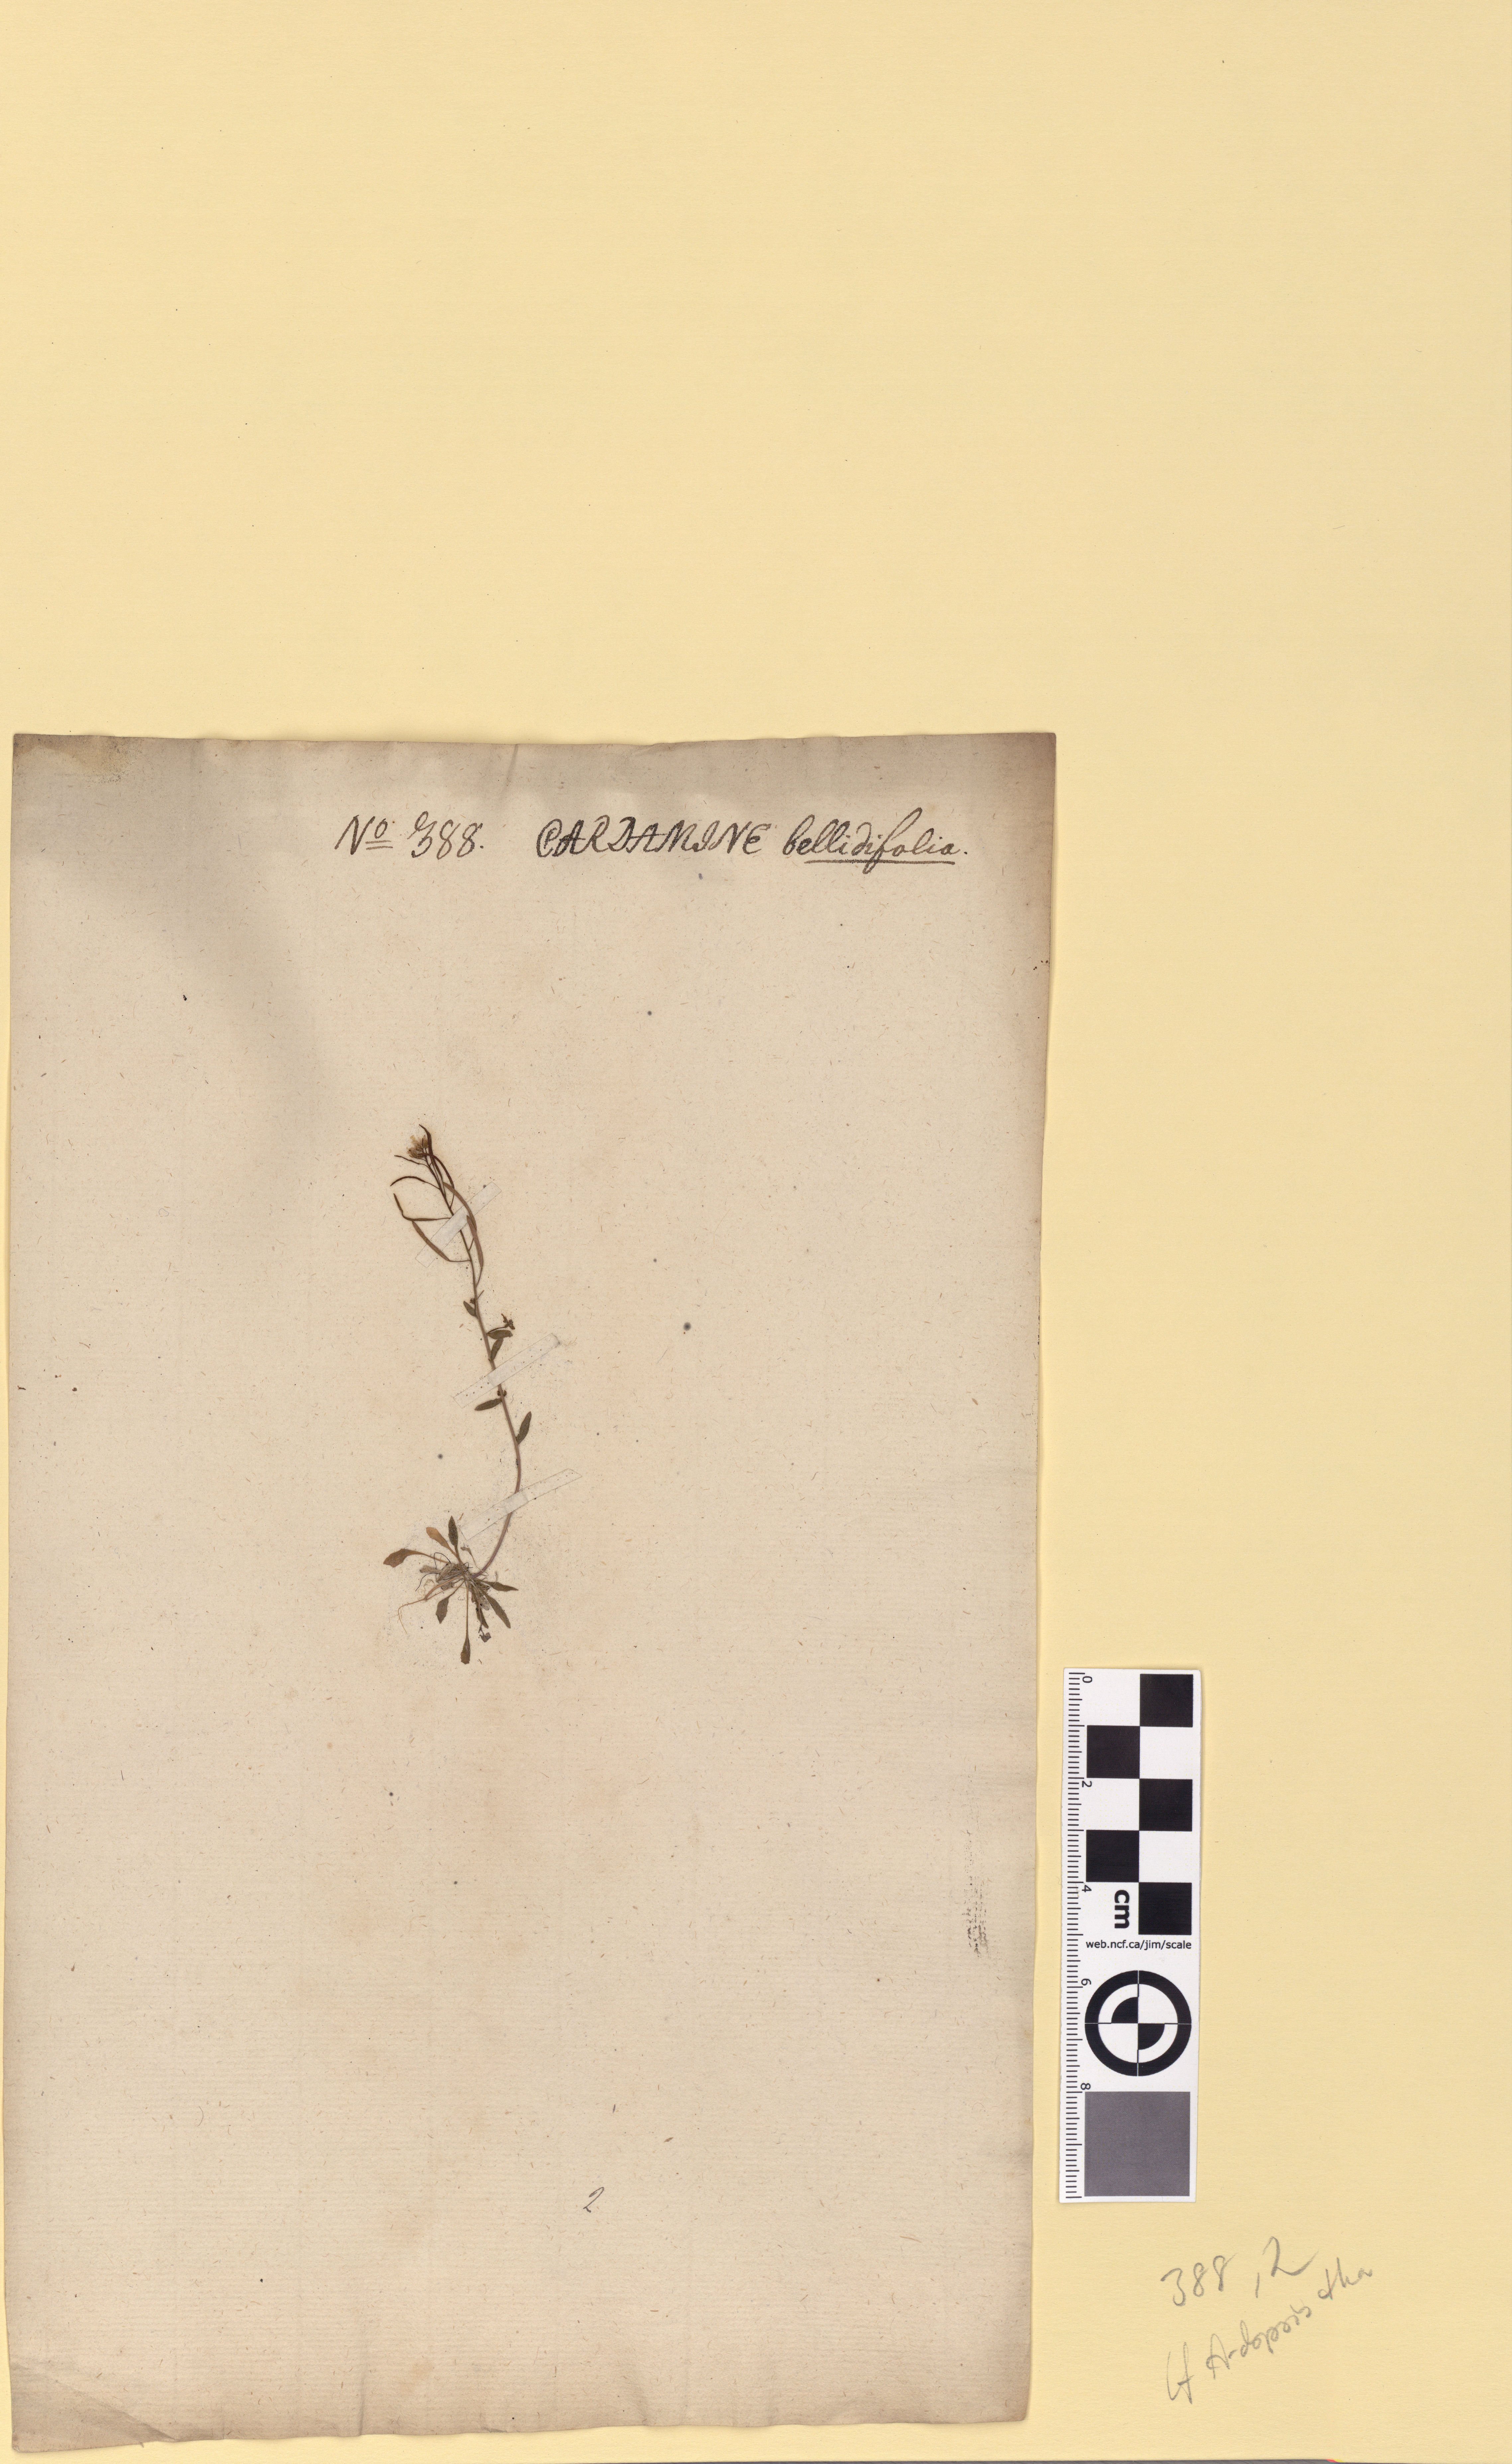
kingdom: Plantae
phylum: Tracheophyta
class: Magnoliopsida
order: Brassicales
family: Brassicaceae
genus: Arabidopsis
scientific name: Arabidopsis thaliana
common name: Thale cress
